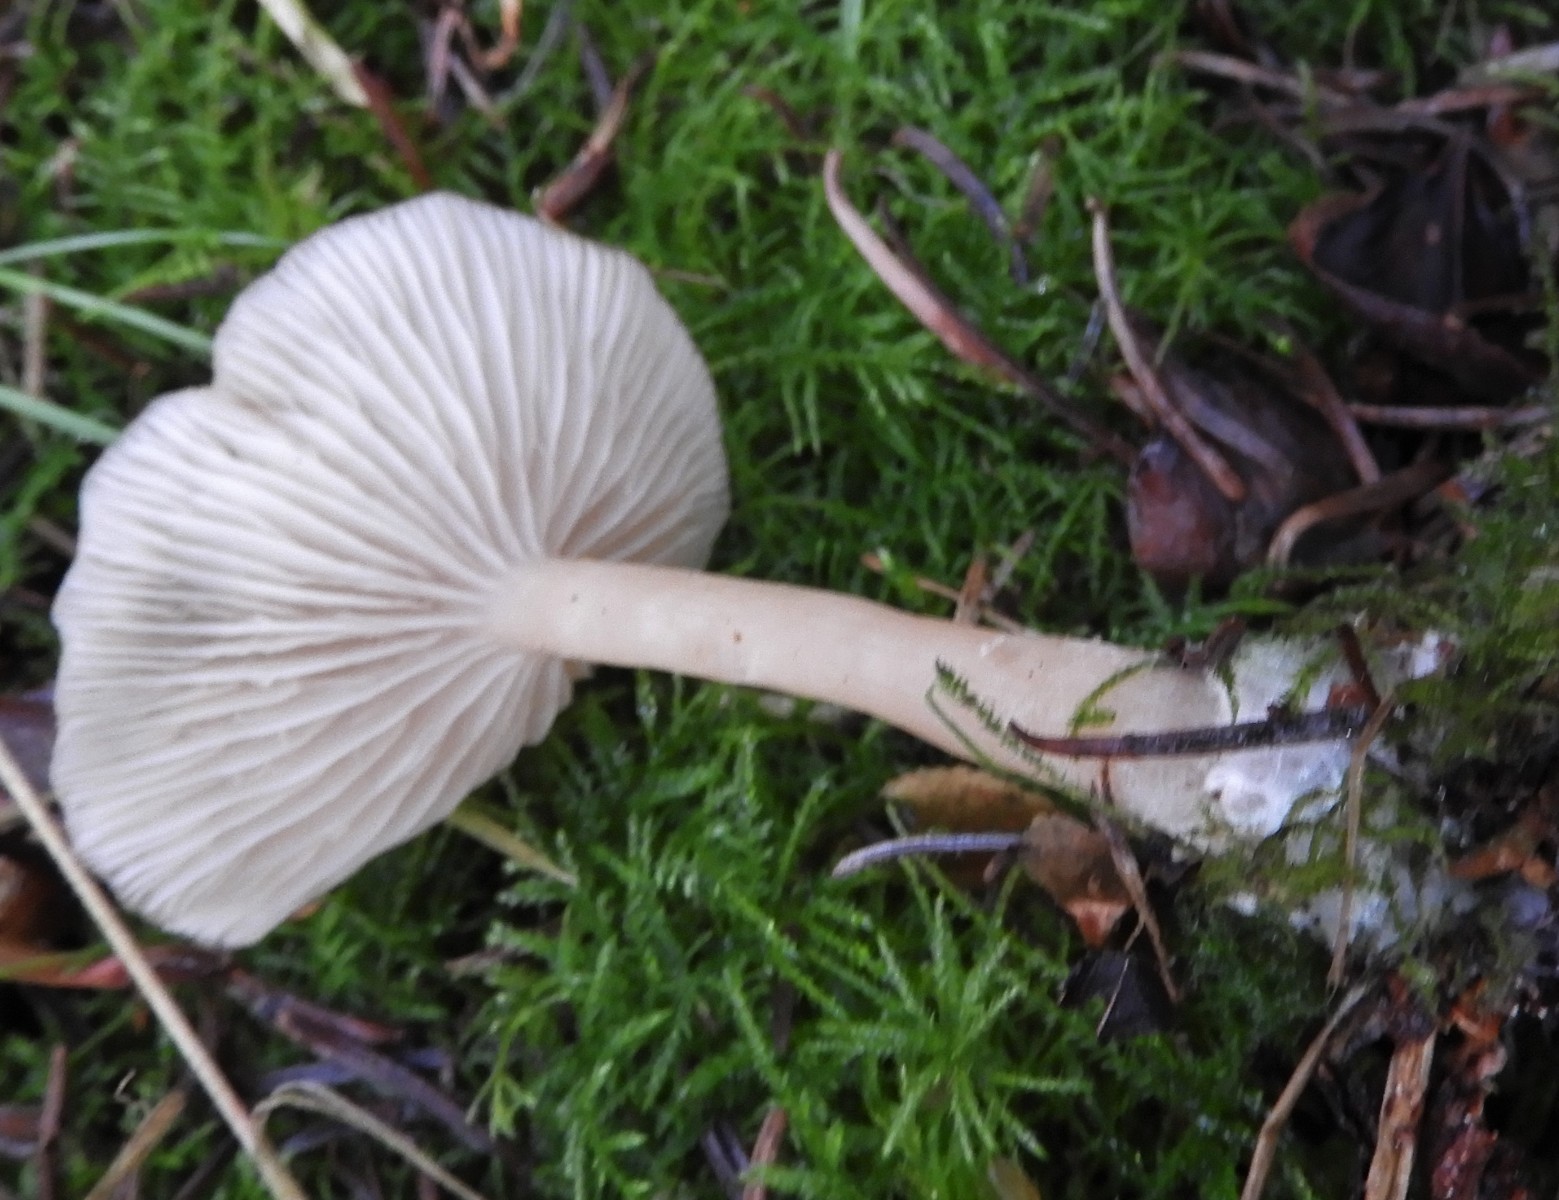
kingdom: Fungi
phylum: Basidiomycota
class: Agaricomycetes
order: Agaricales
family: Tricholomataceae
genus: Clitocybe
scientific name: Clitocybe fragrans
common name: vellugtende tragthat
